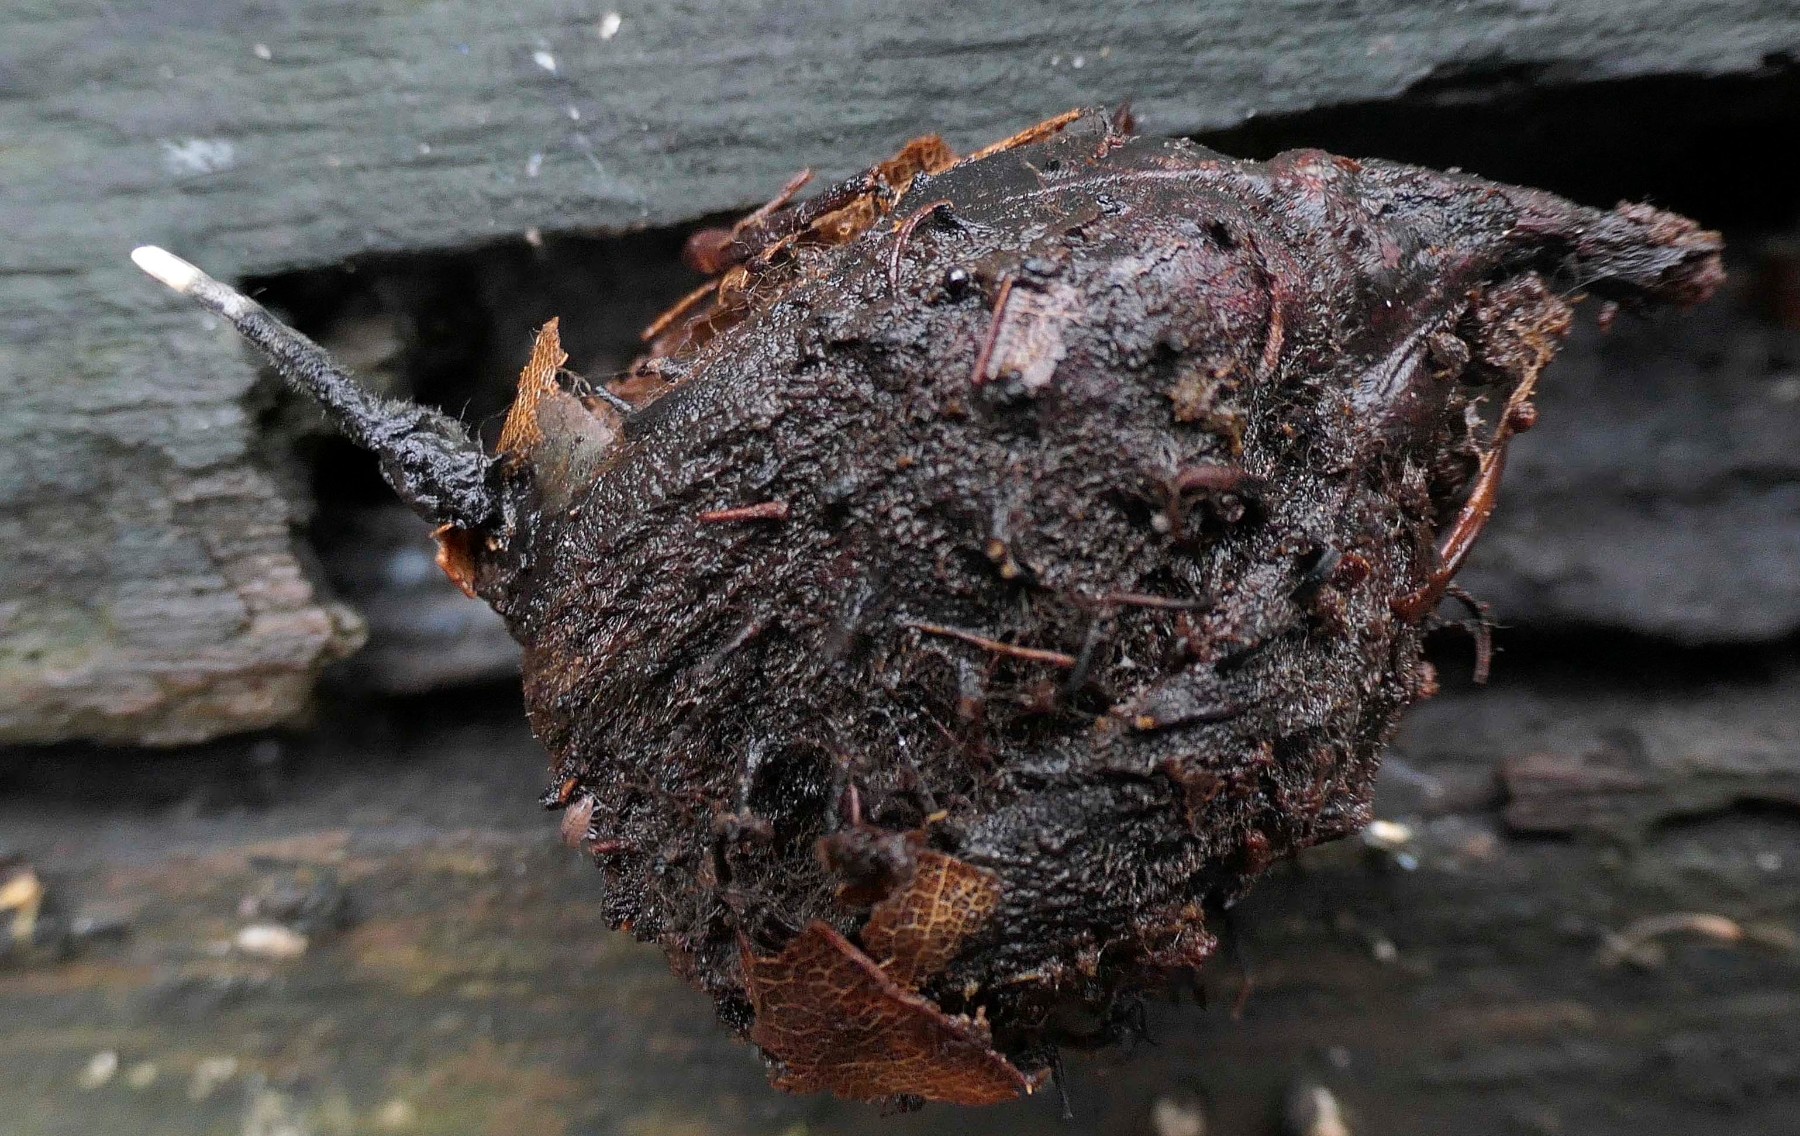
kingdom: Fungi
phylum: Ascomycota
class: Sordariomycetes
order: Xylariales
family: Xylariaceae
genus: Xylaria
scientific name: Xylaria carpophila
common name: bogskål-stødsvamp
